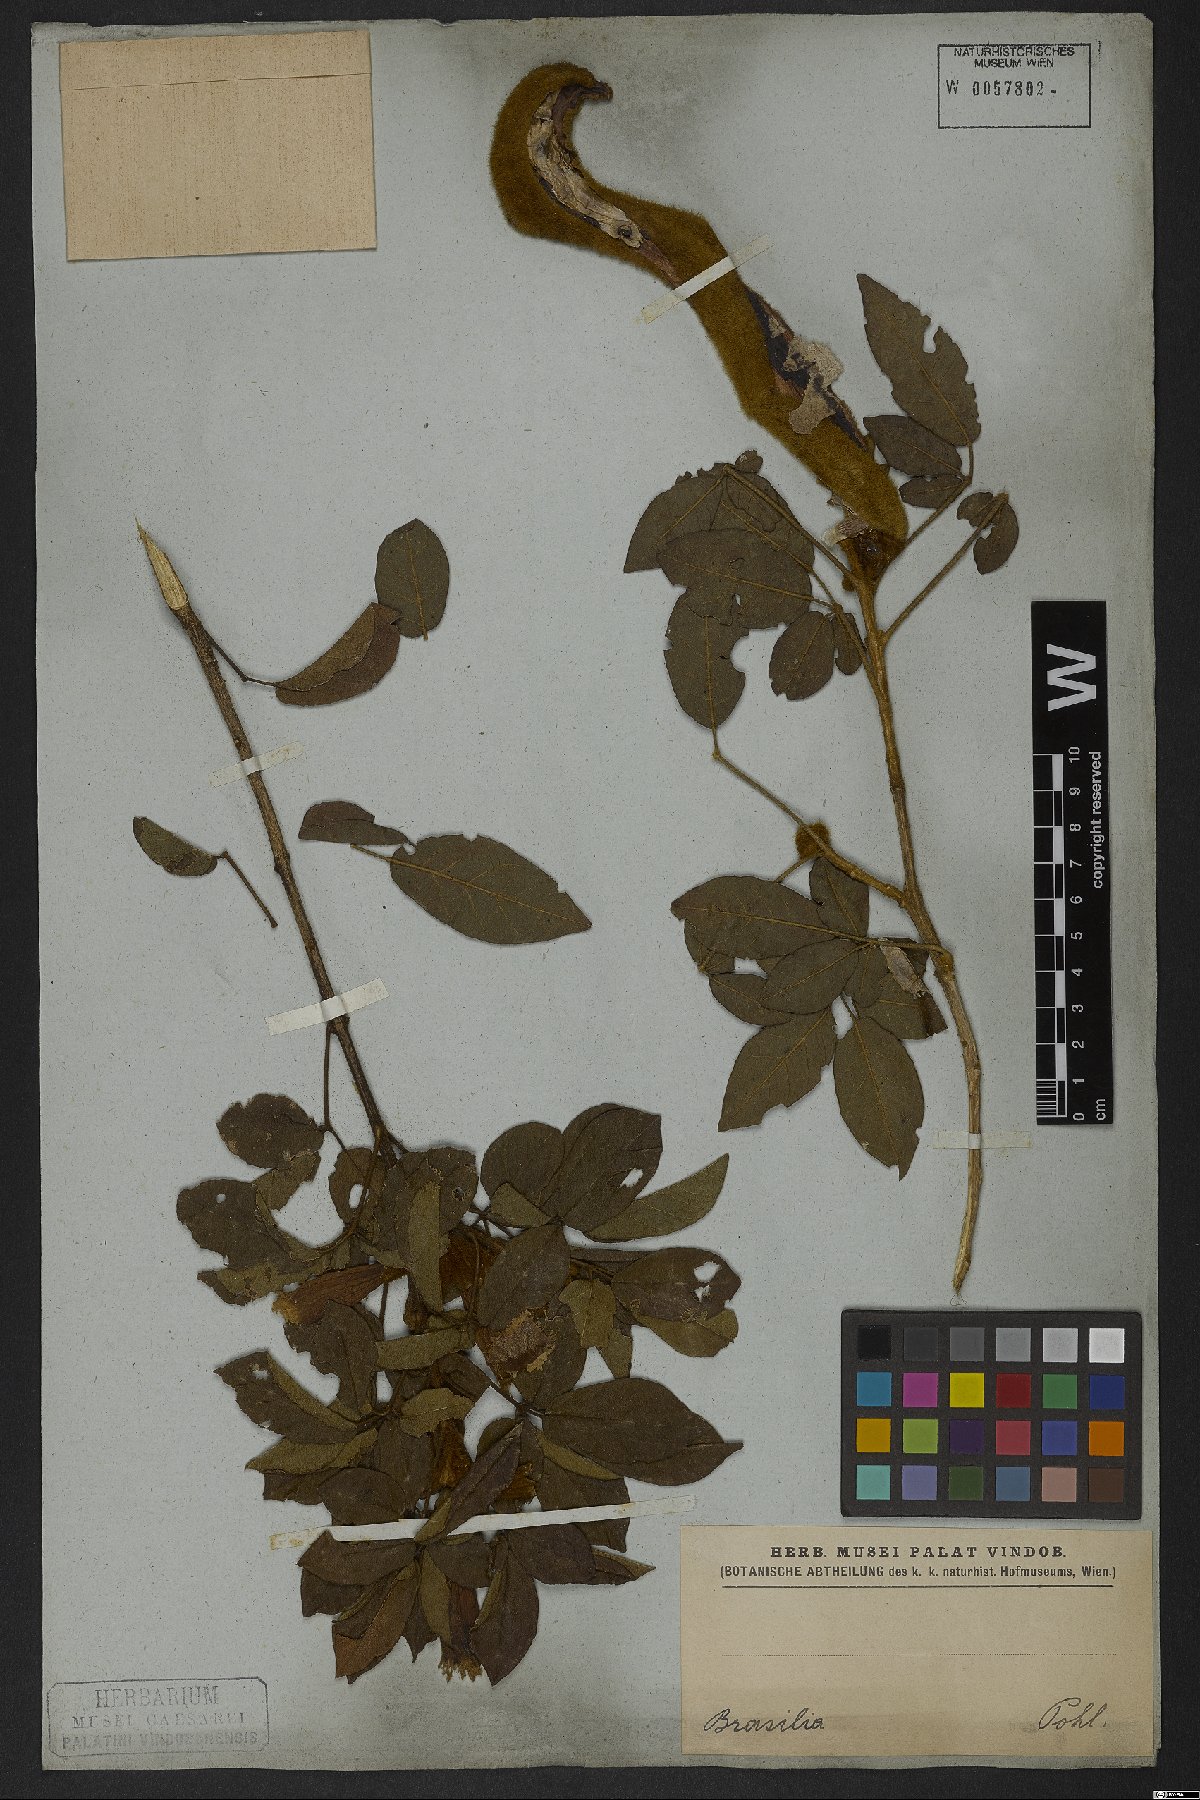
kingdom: Plantae
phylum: Tracheophyta
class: Magnoliopsida
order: Lamiales
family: Bignoniaceae
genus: Handroanthus
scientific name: Handroanthus chrysotrichus
